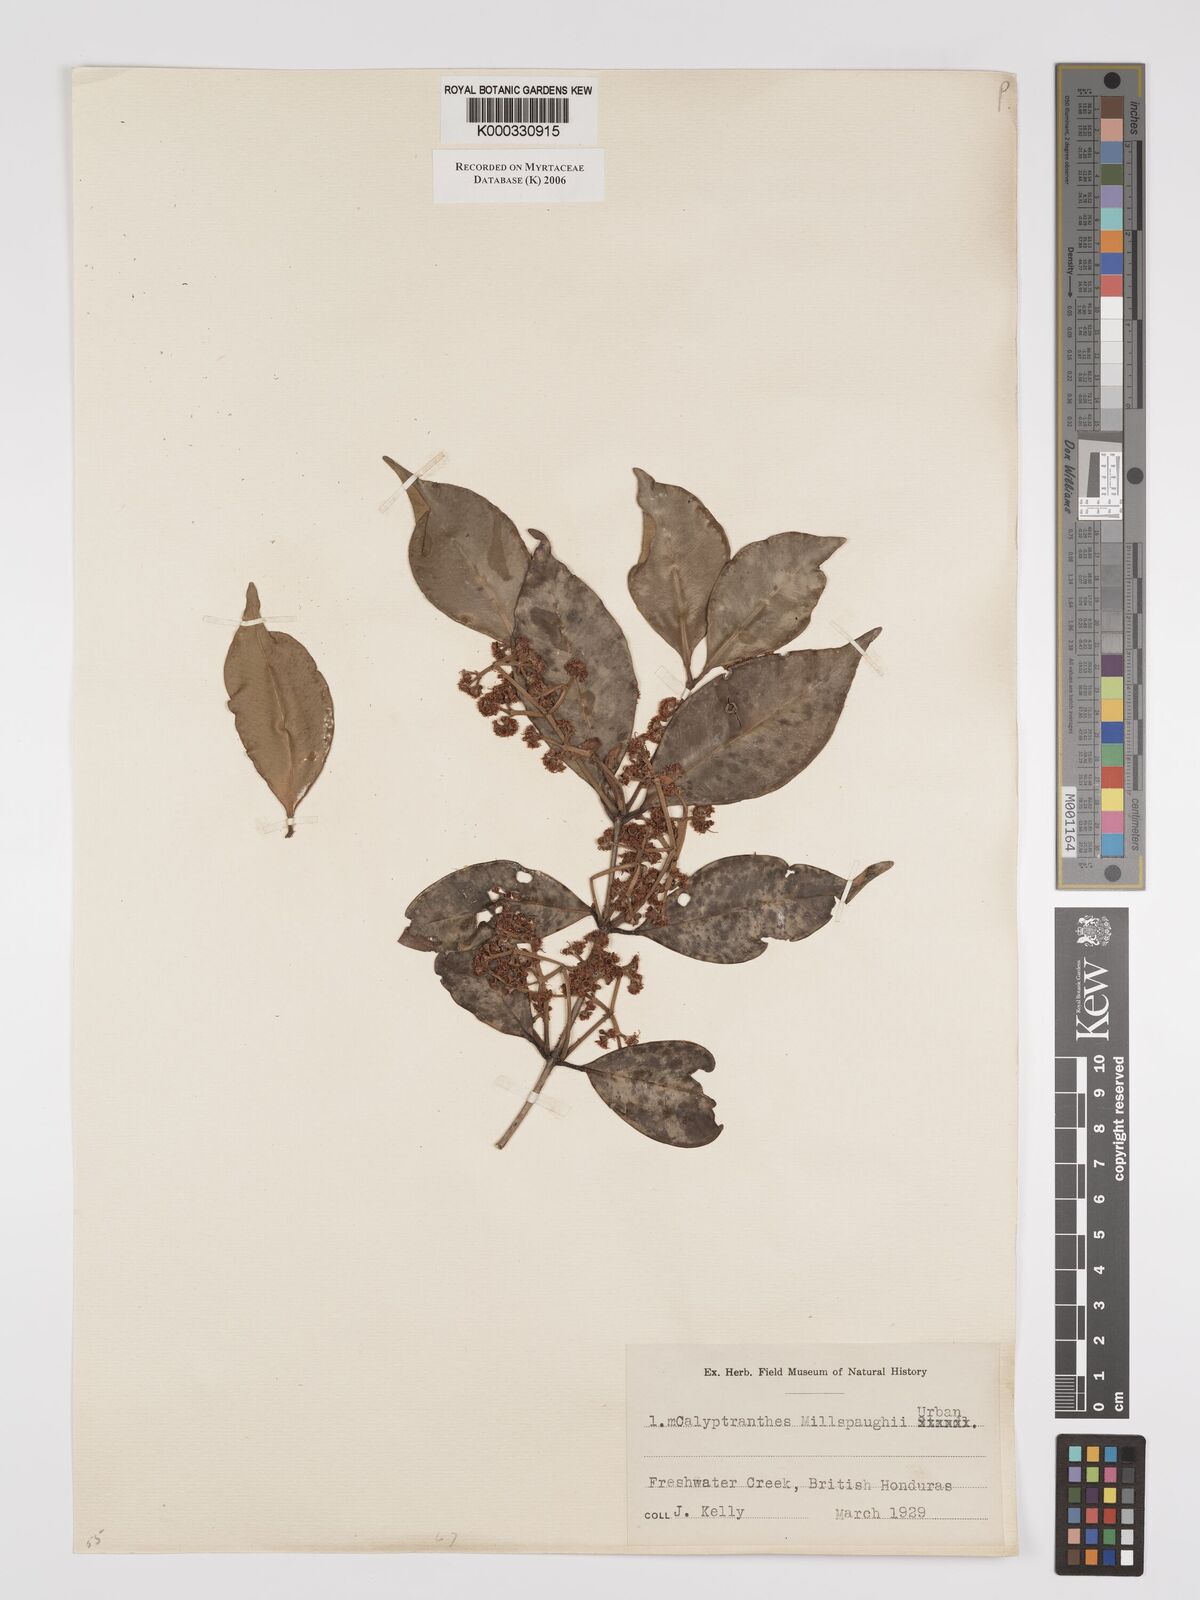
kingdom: Plantae
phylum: Tracheophyta
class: Magnoliopsida
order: Myrtales
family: Myrtaceae
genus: Myrcia
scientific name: Myrcia millspaughii
